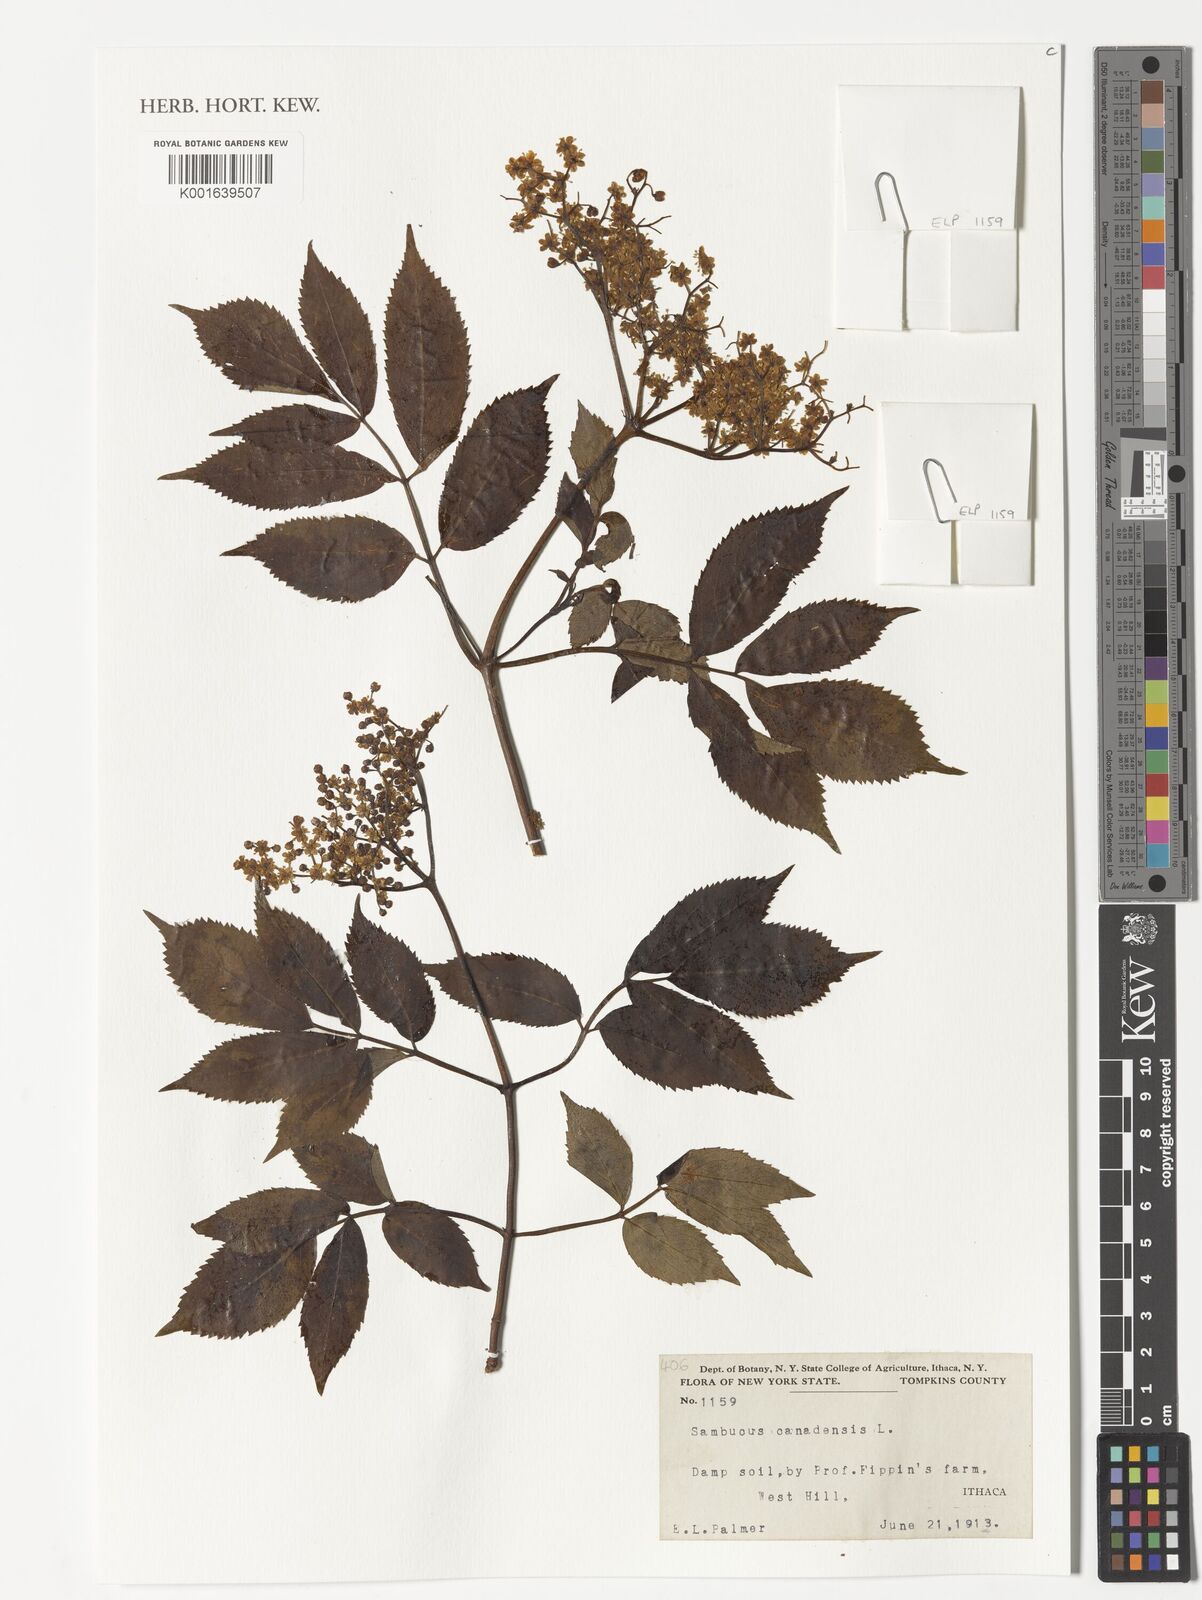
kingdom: Plantae
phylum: Tracheophyta
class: Magnoliopsida
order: Dipsacales
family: Viburnaceae
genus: Sambucus
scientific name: Sambucus canadensis
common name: American elder
